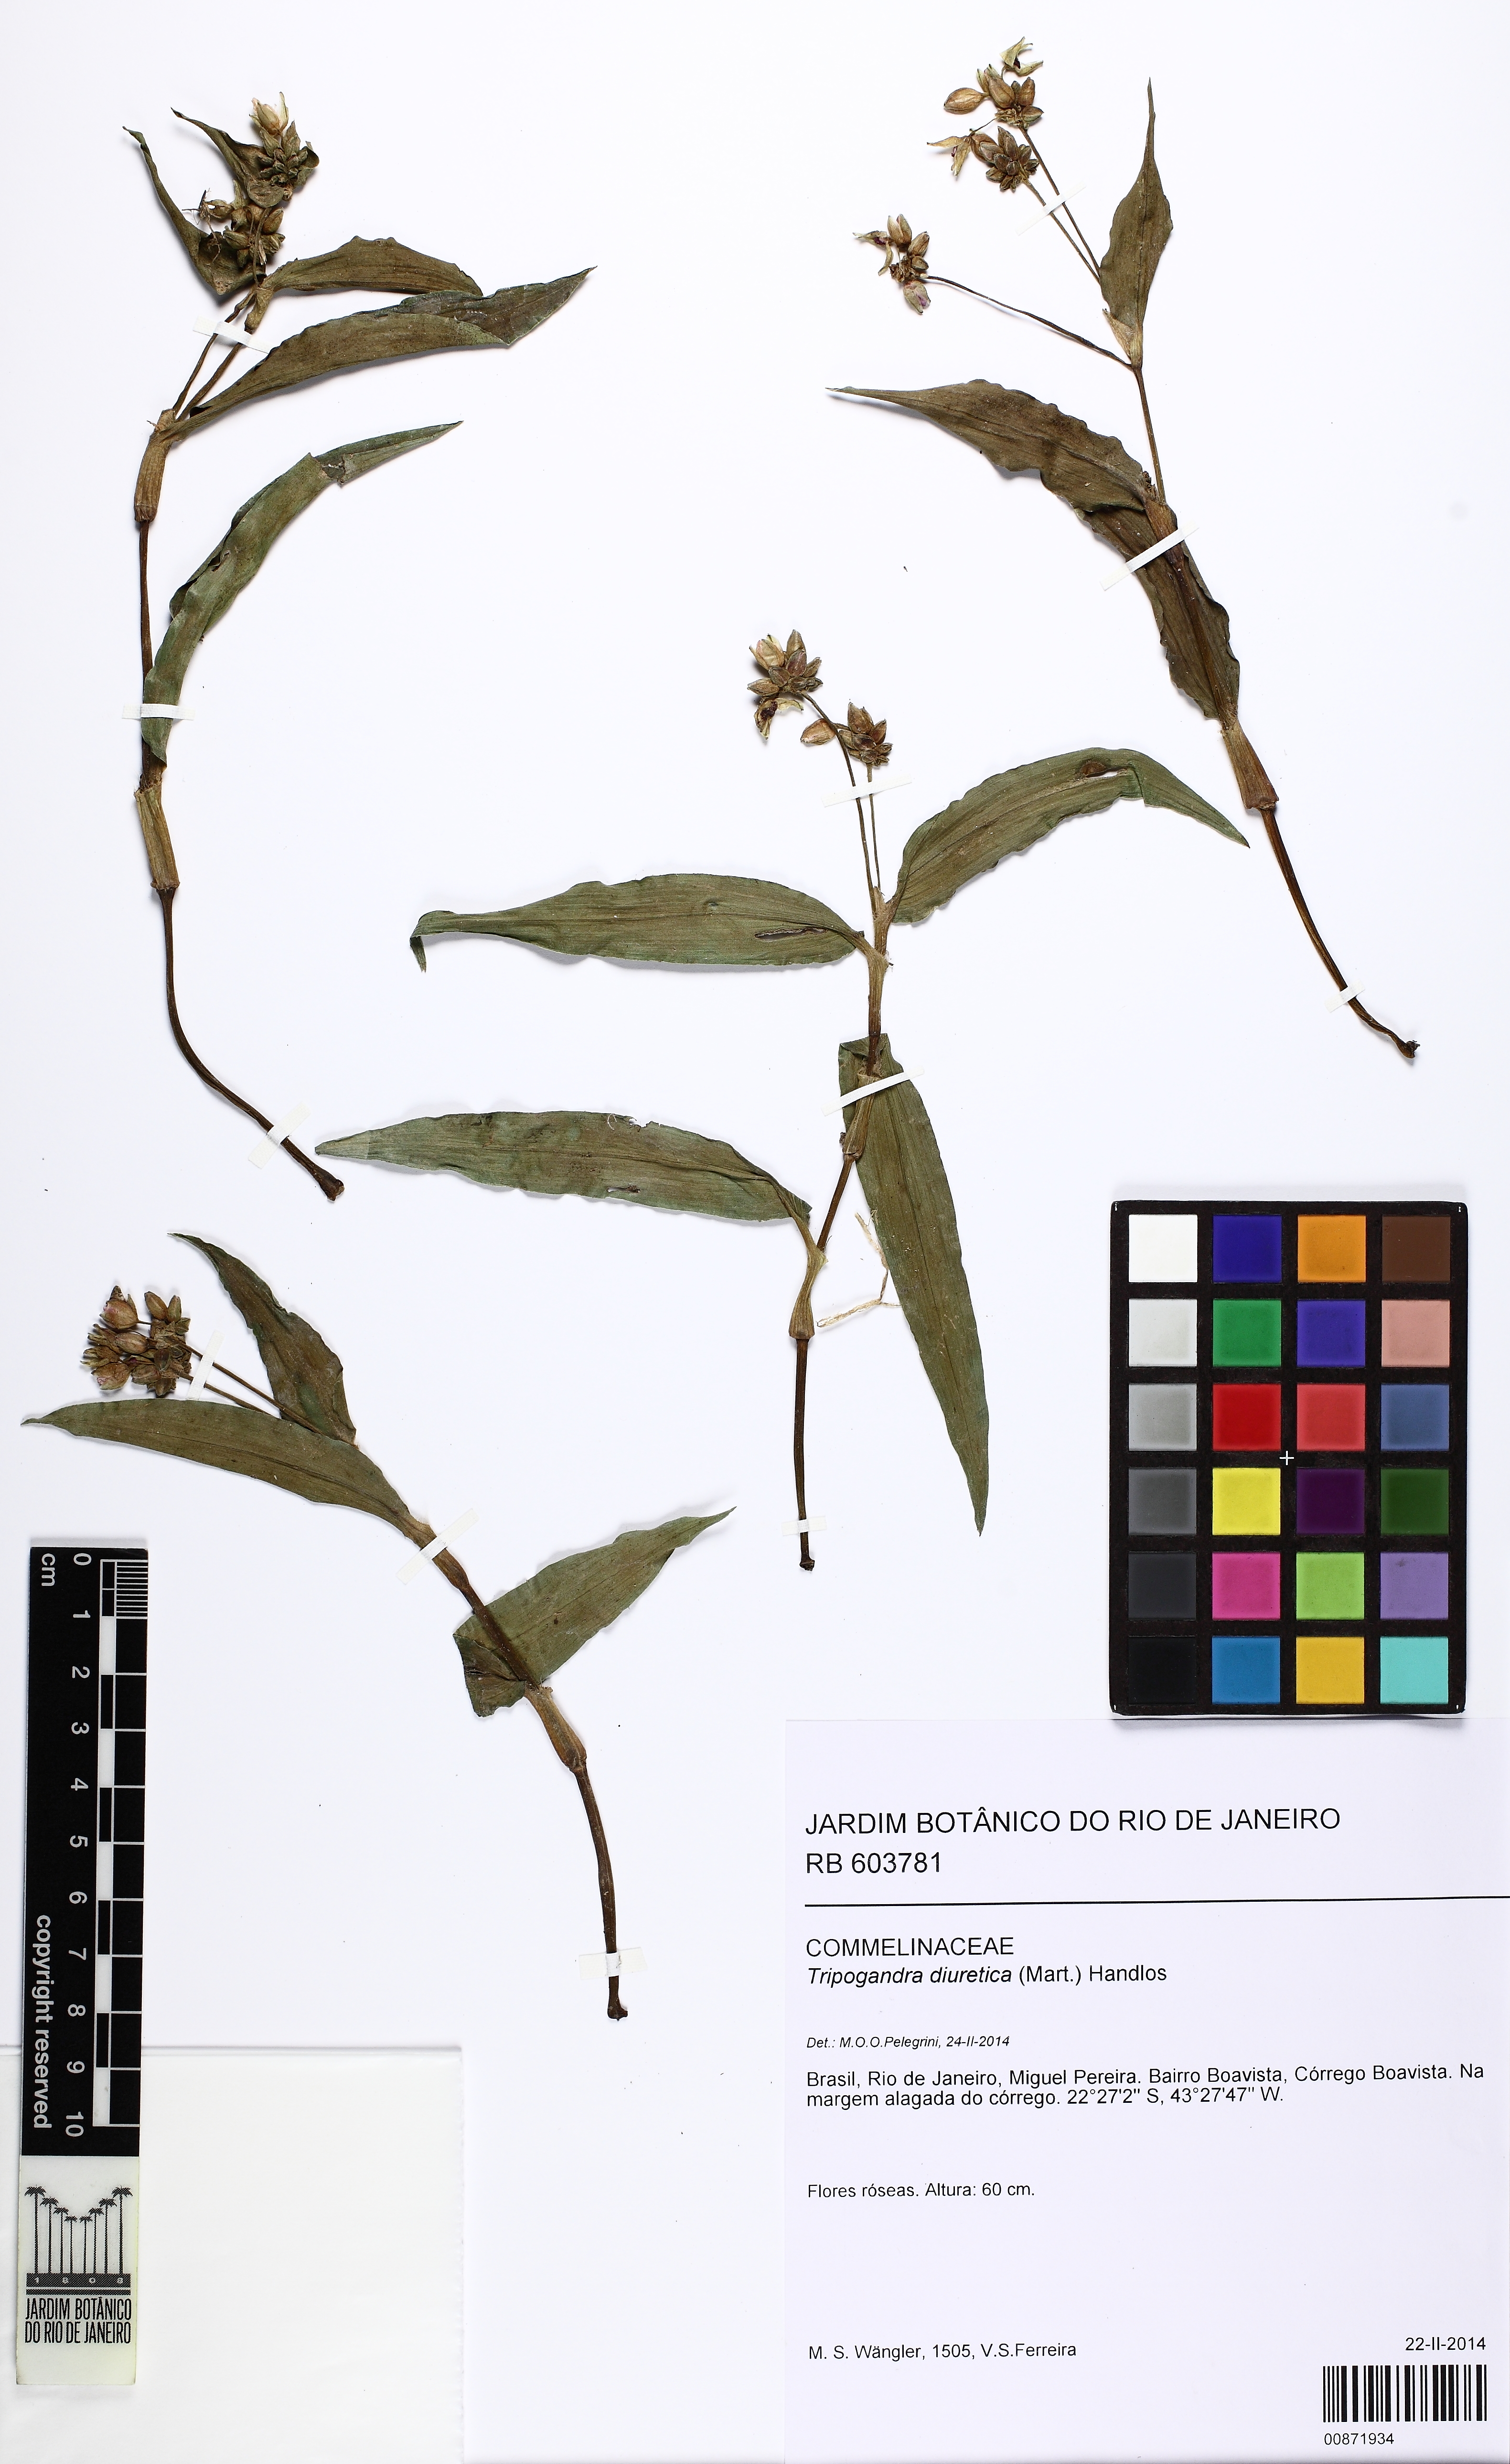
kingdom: Plantae
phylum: Tracheophyta
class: Liliopsida
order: Commelinales
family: Commelinaceae
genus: Callisia
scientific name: Callisia diuretica
